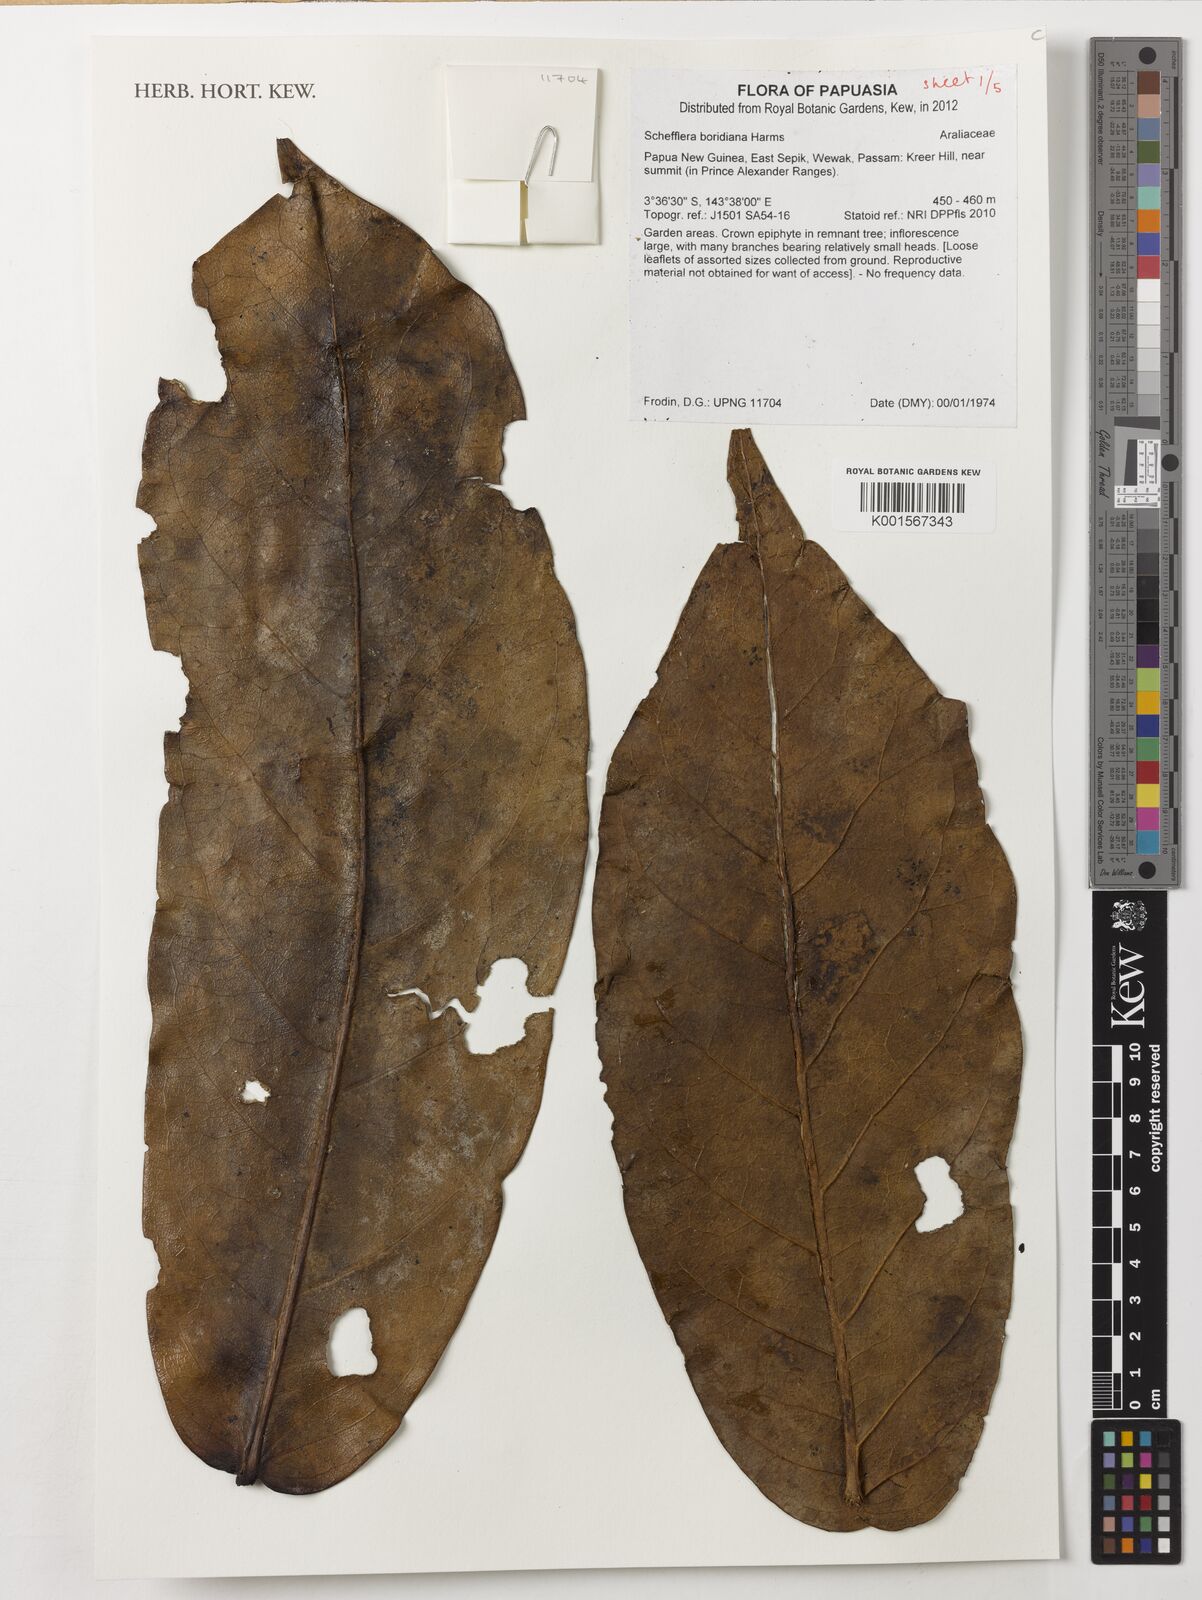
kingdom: Plantae
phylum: Tracheophyta
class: Magnoliopsida
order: Apiales
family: Araliaceae
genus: Heptapleurum
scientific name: Heptapleurum boridianum
